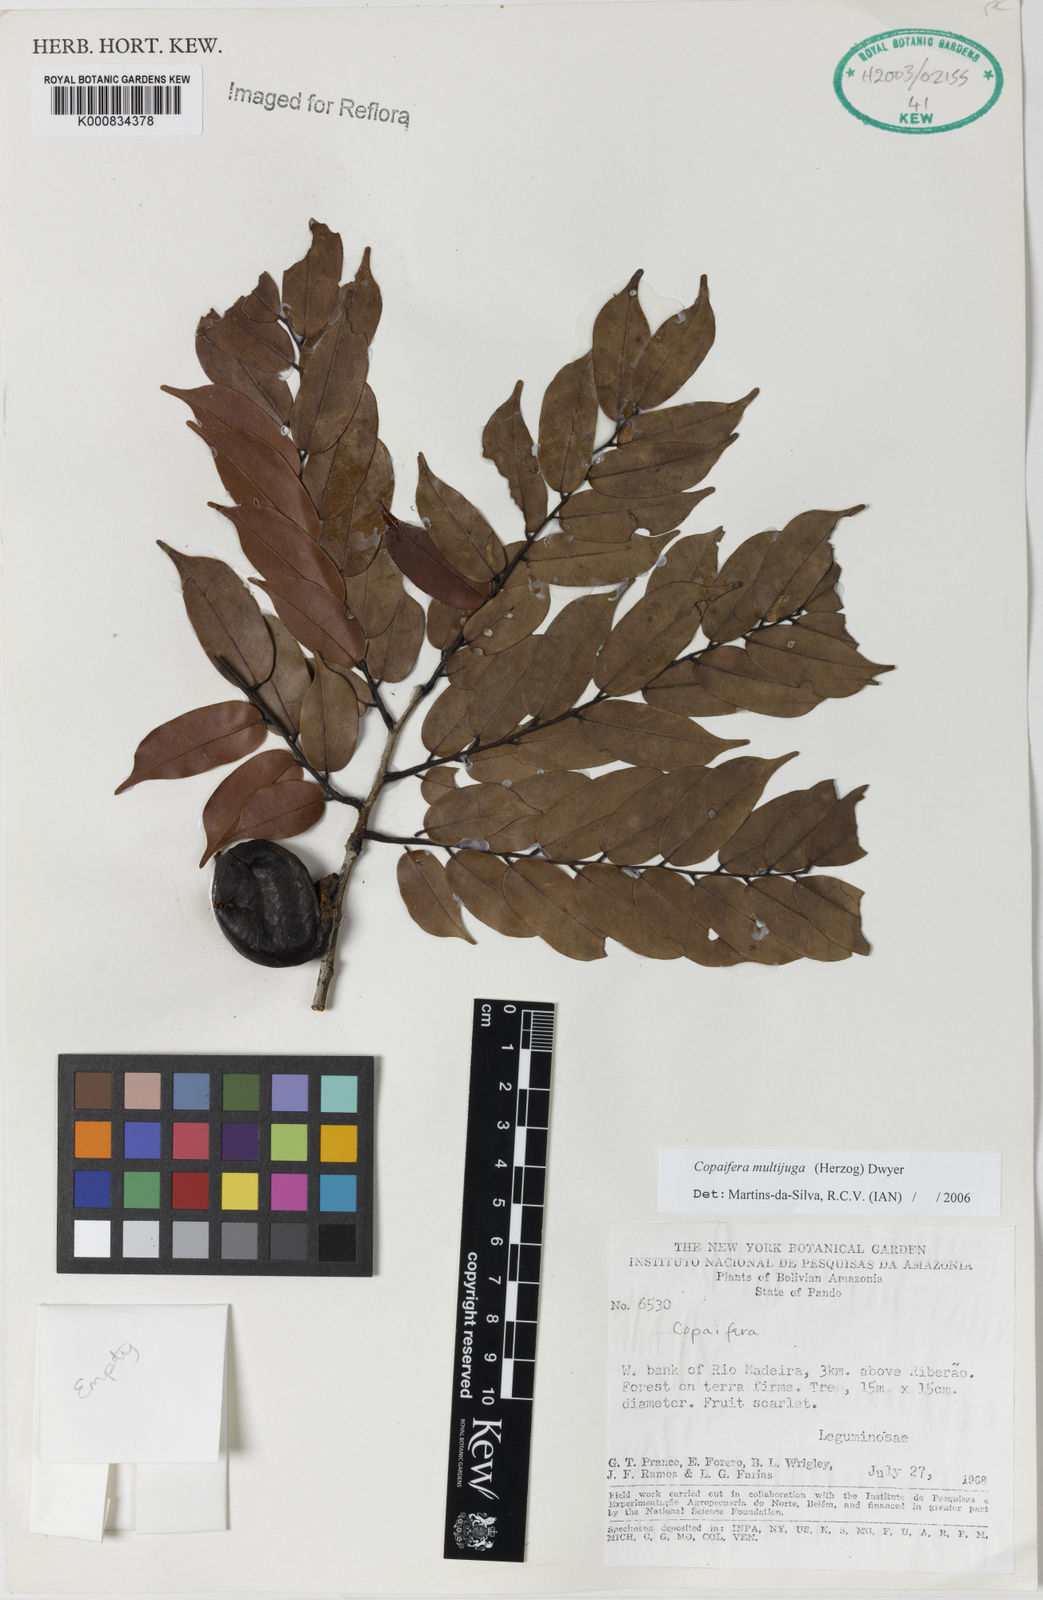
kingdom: Plantae
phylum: Tracheophyta
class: Magnoliopsida
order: Fabales
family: Fabaceae
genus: Copaifera
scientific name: Copaifera multijuga
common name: Brazilian copaiba
